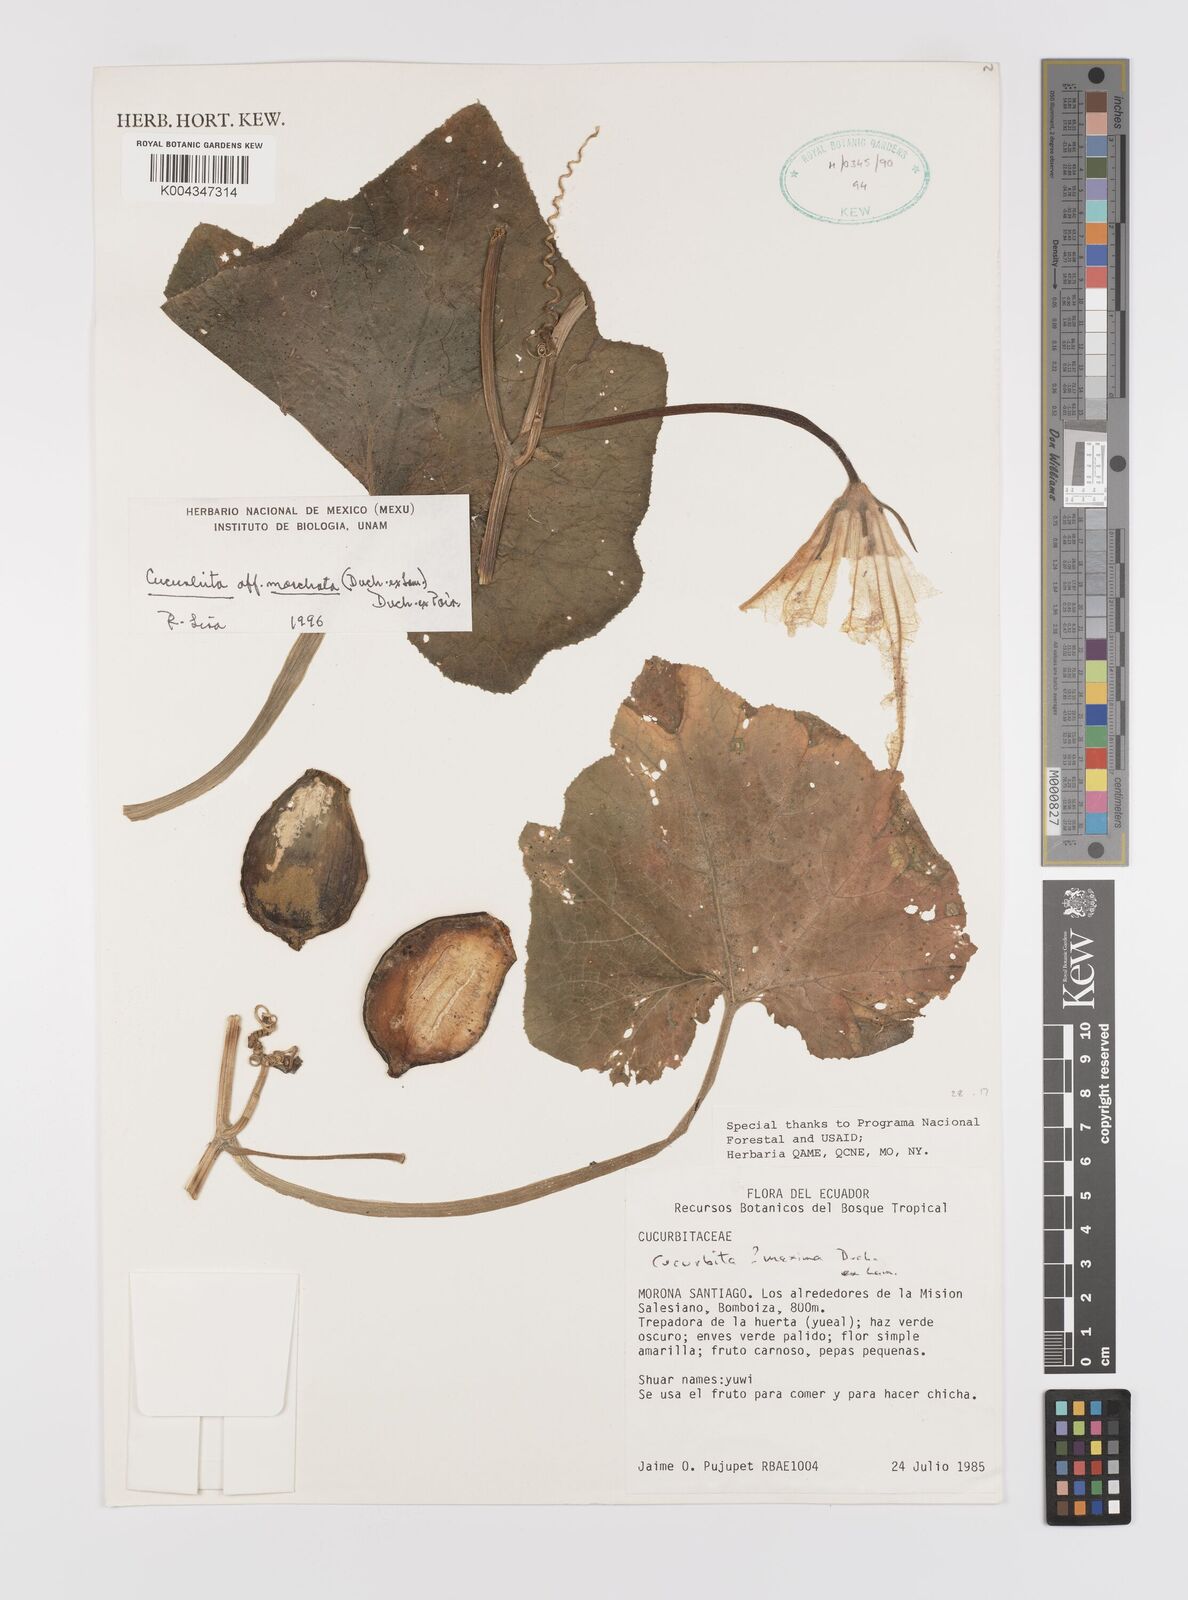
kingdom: Plantae
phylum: Tracheophyta
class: Magnoliopsida
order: Cucurbitales
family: Cucurbitaceae
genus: Cucurbita
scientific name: Cucurbita moschata
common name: Squash / pumpkin
